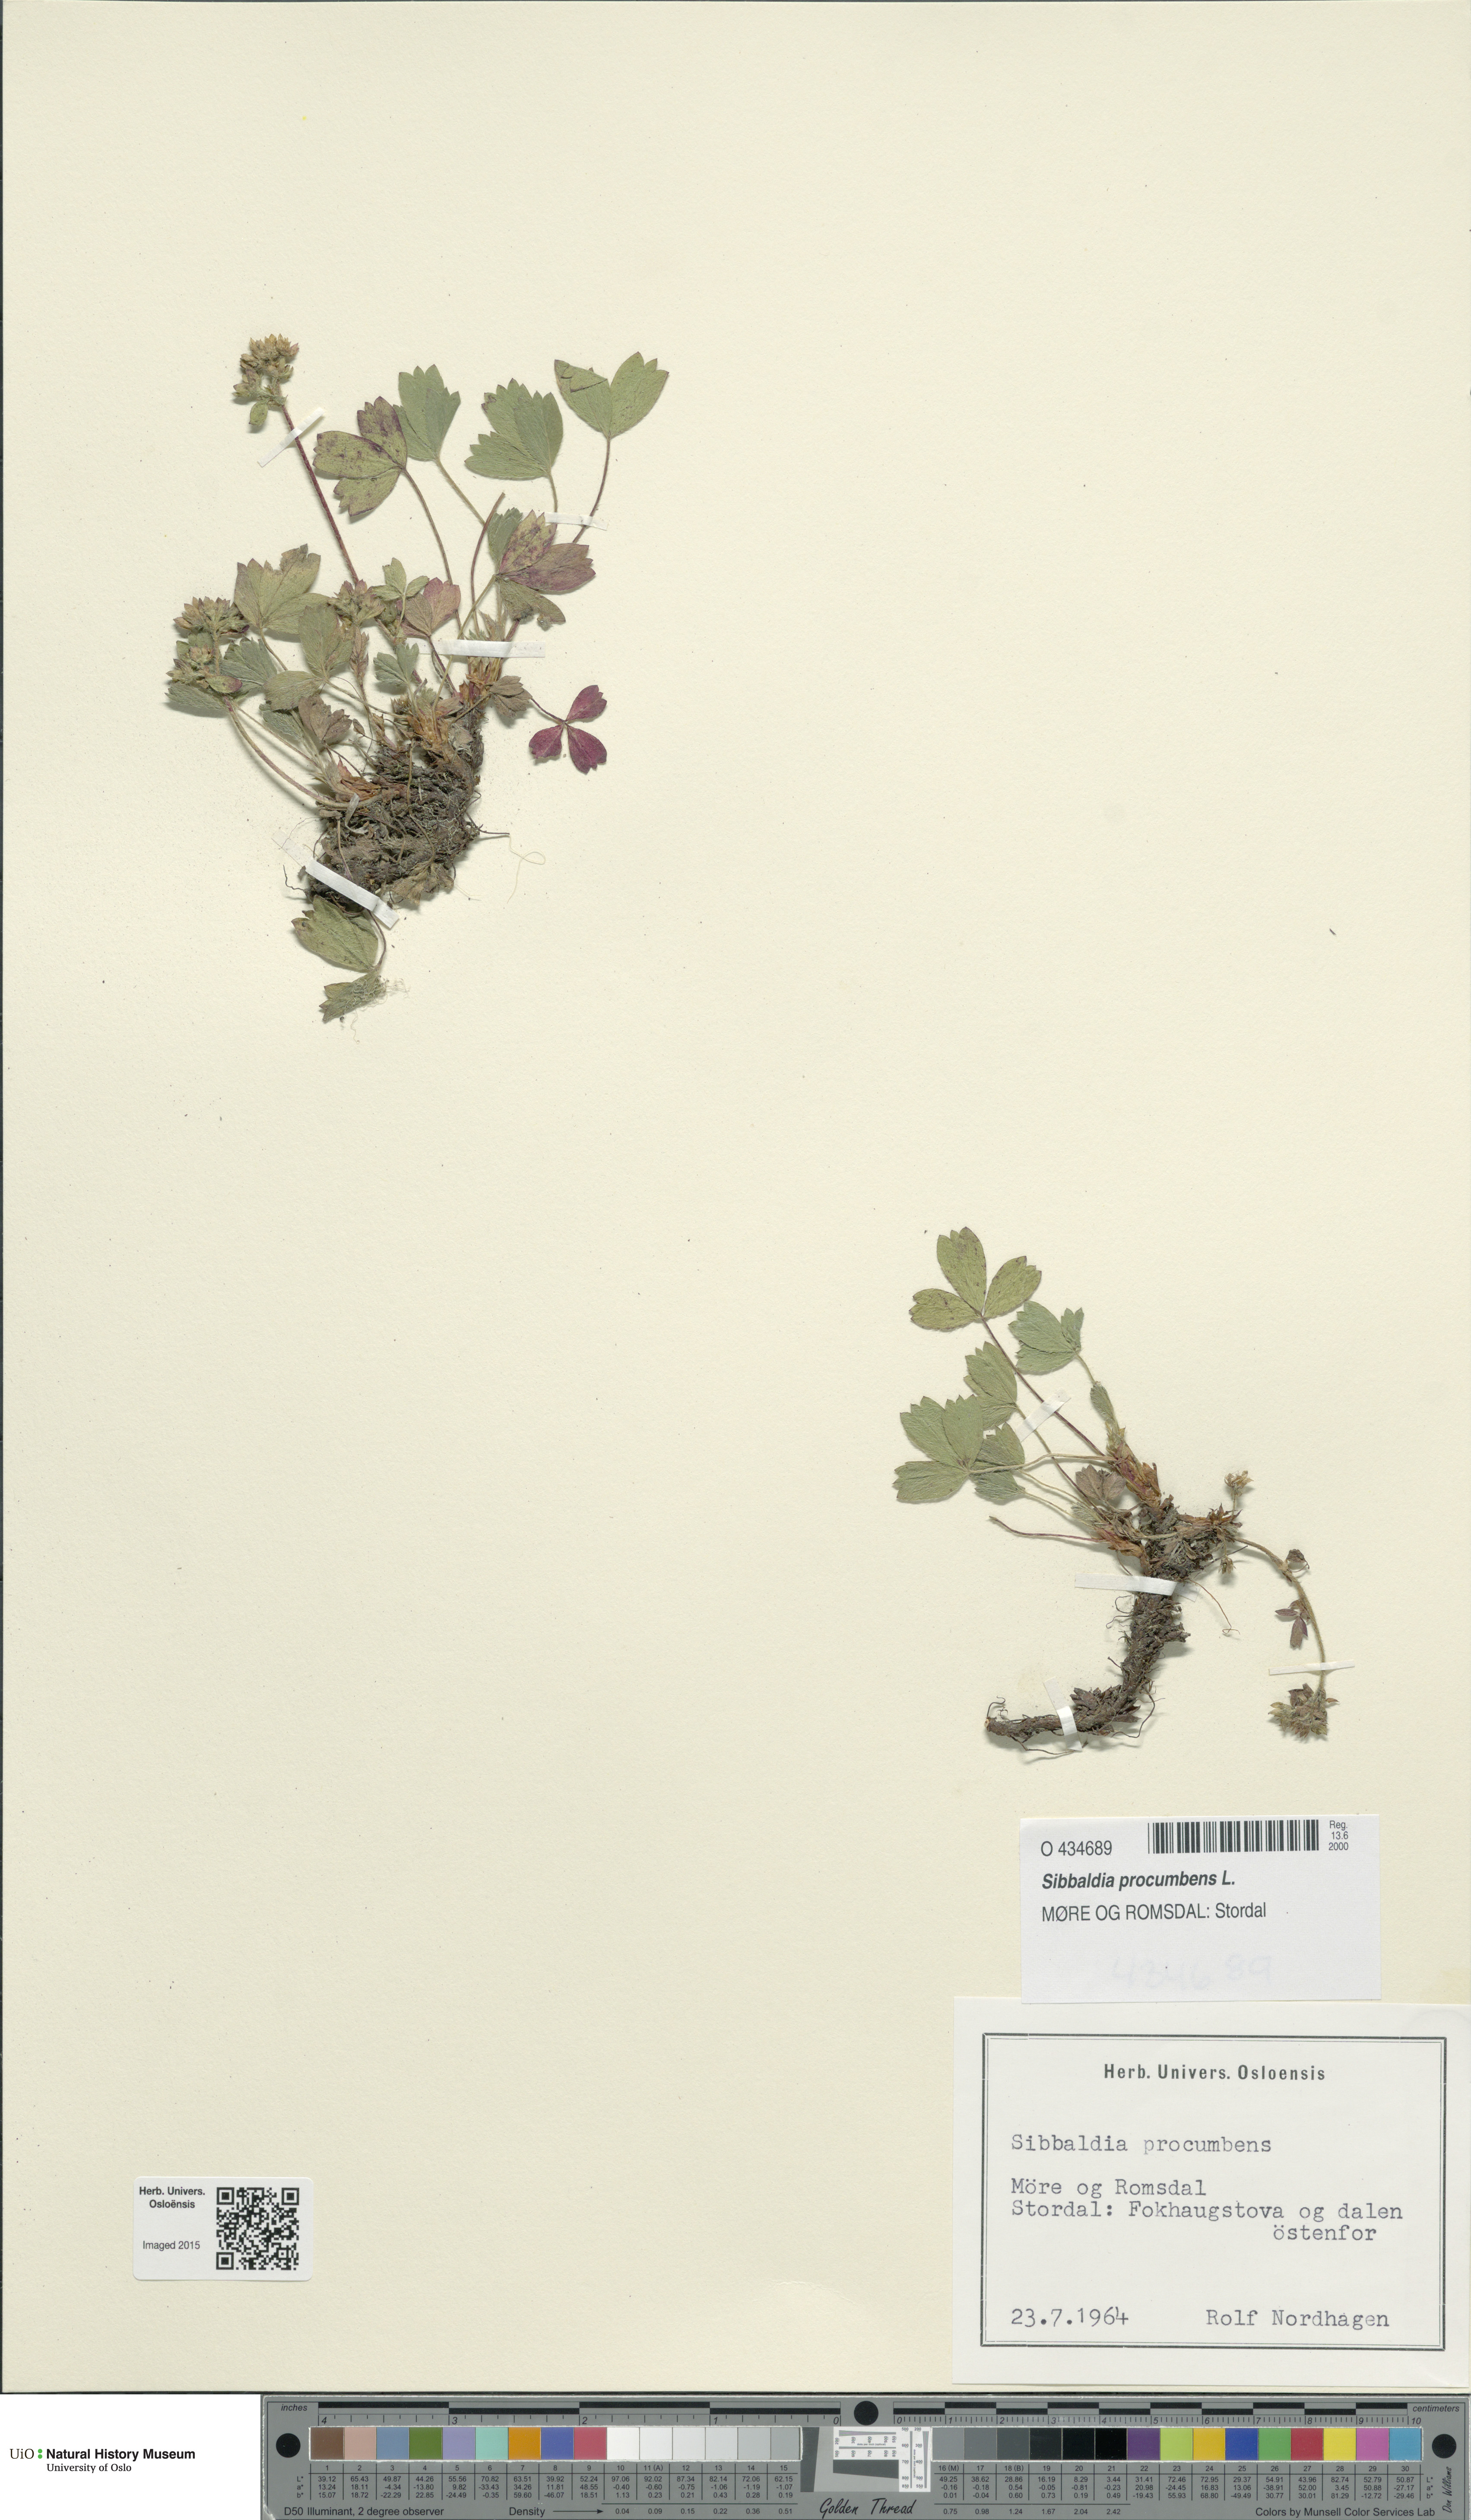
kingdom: Plantae
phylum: Tracheophyta
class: Magnoliopsida
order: Rosales
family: Rosaceae
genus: Sibbaldia
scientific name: Sibbaldia procumbens
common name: Creeping sibbaldia
